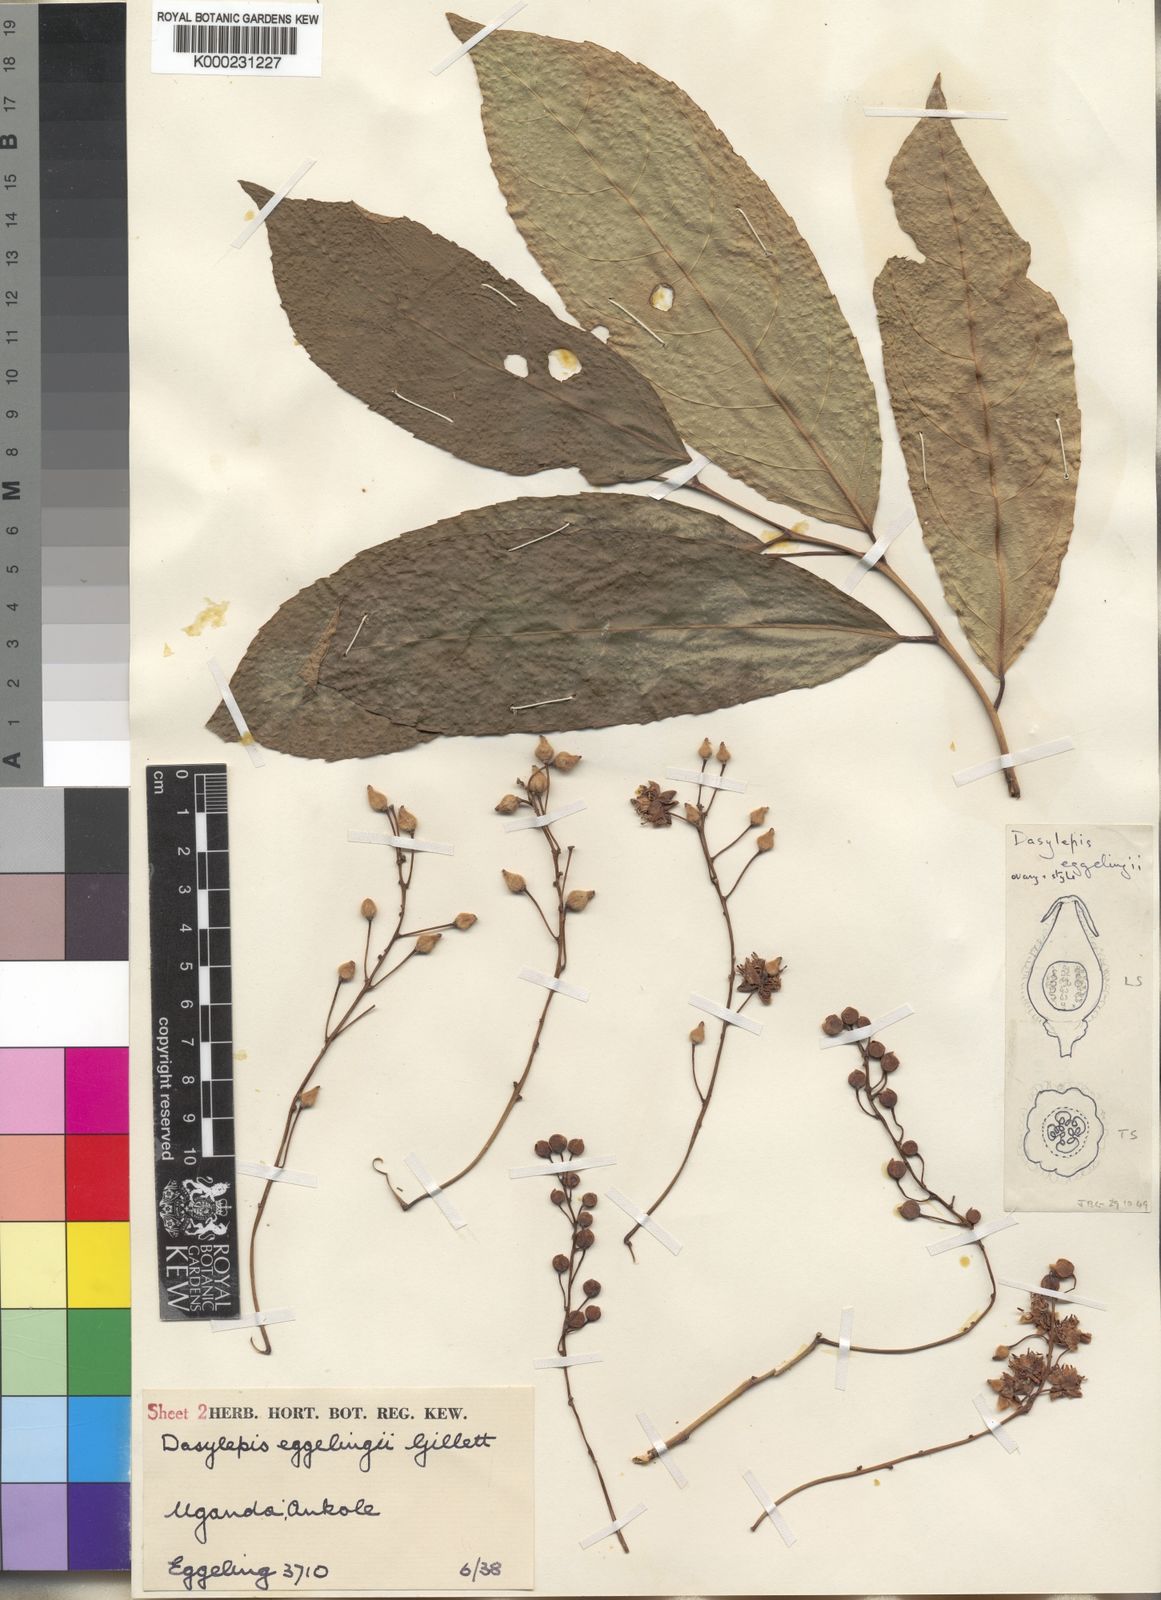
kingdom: Plantae
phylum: Tracheophyta
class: Magnoliopsida
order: Malpighiales
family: Achariaceae
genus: Dasylepis
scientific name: Dasylepis eggelingii
